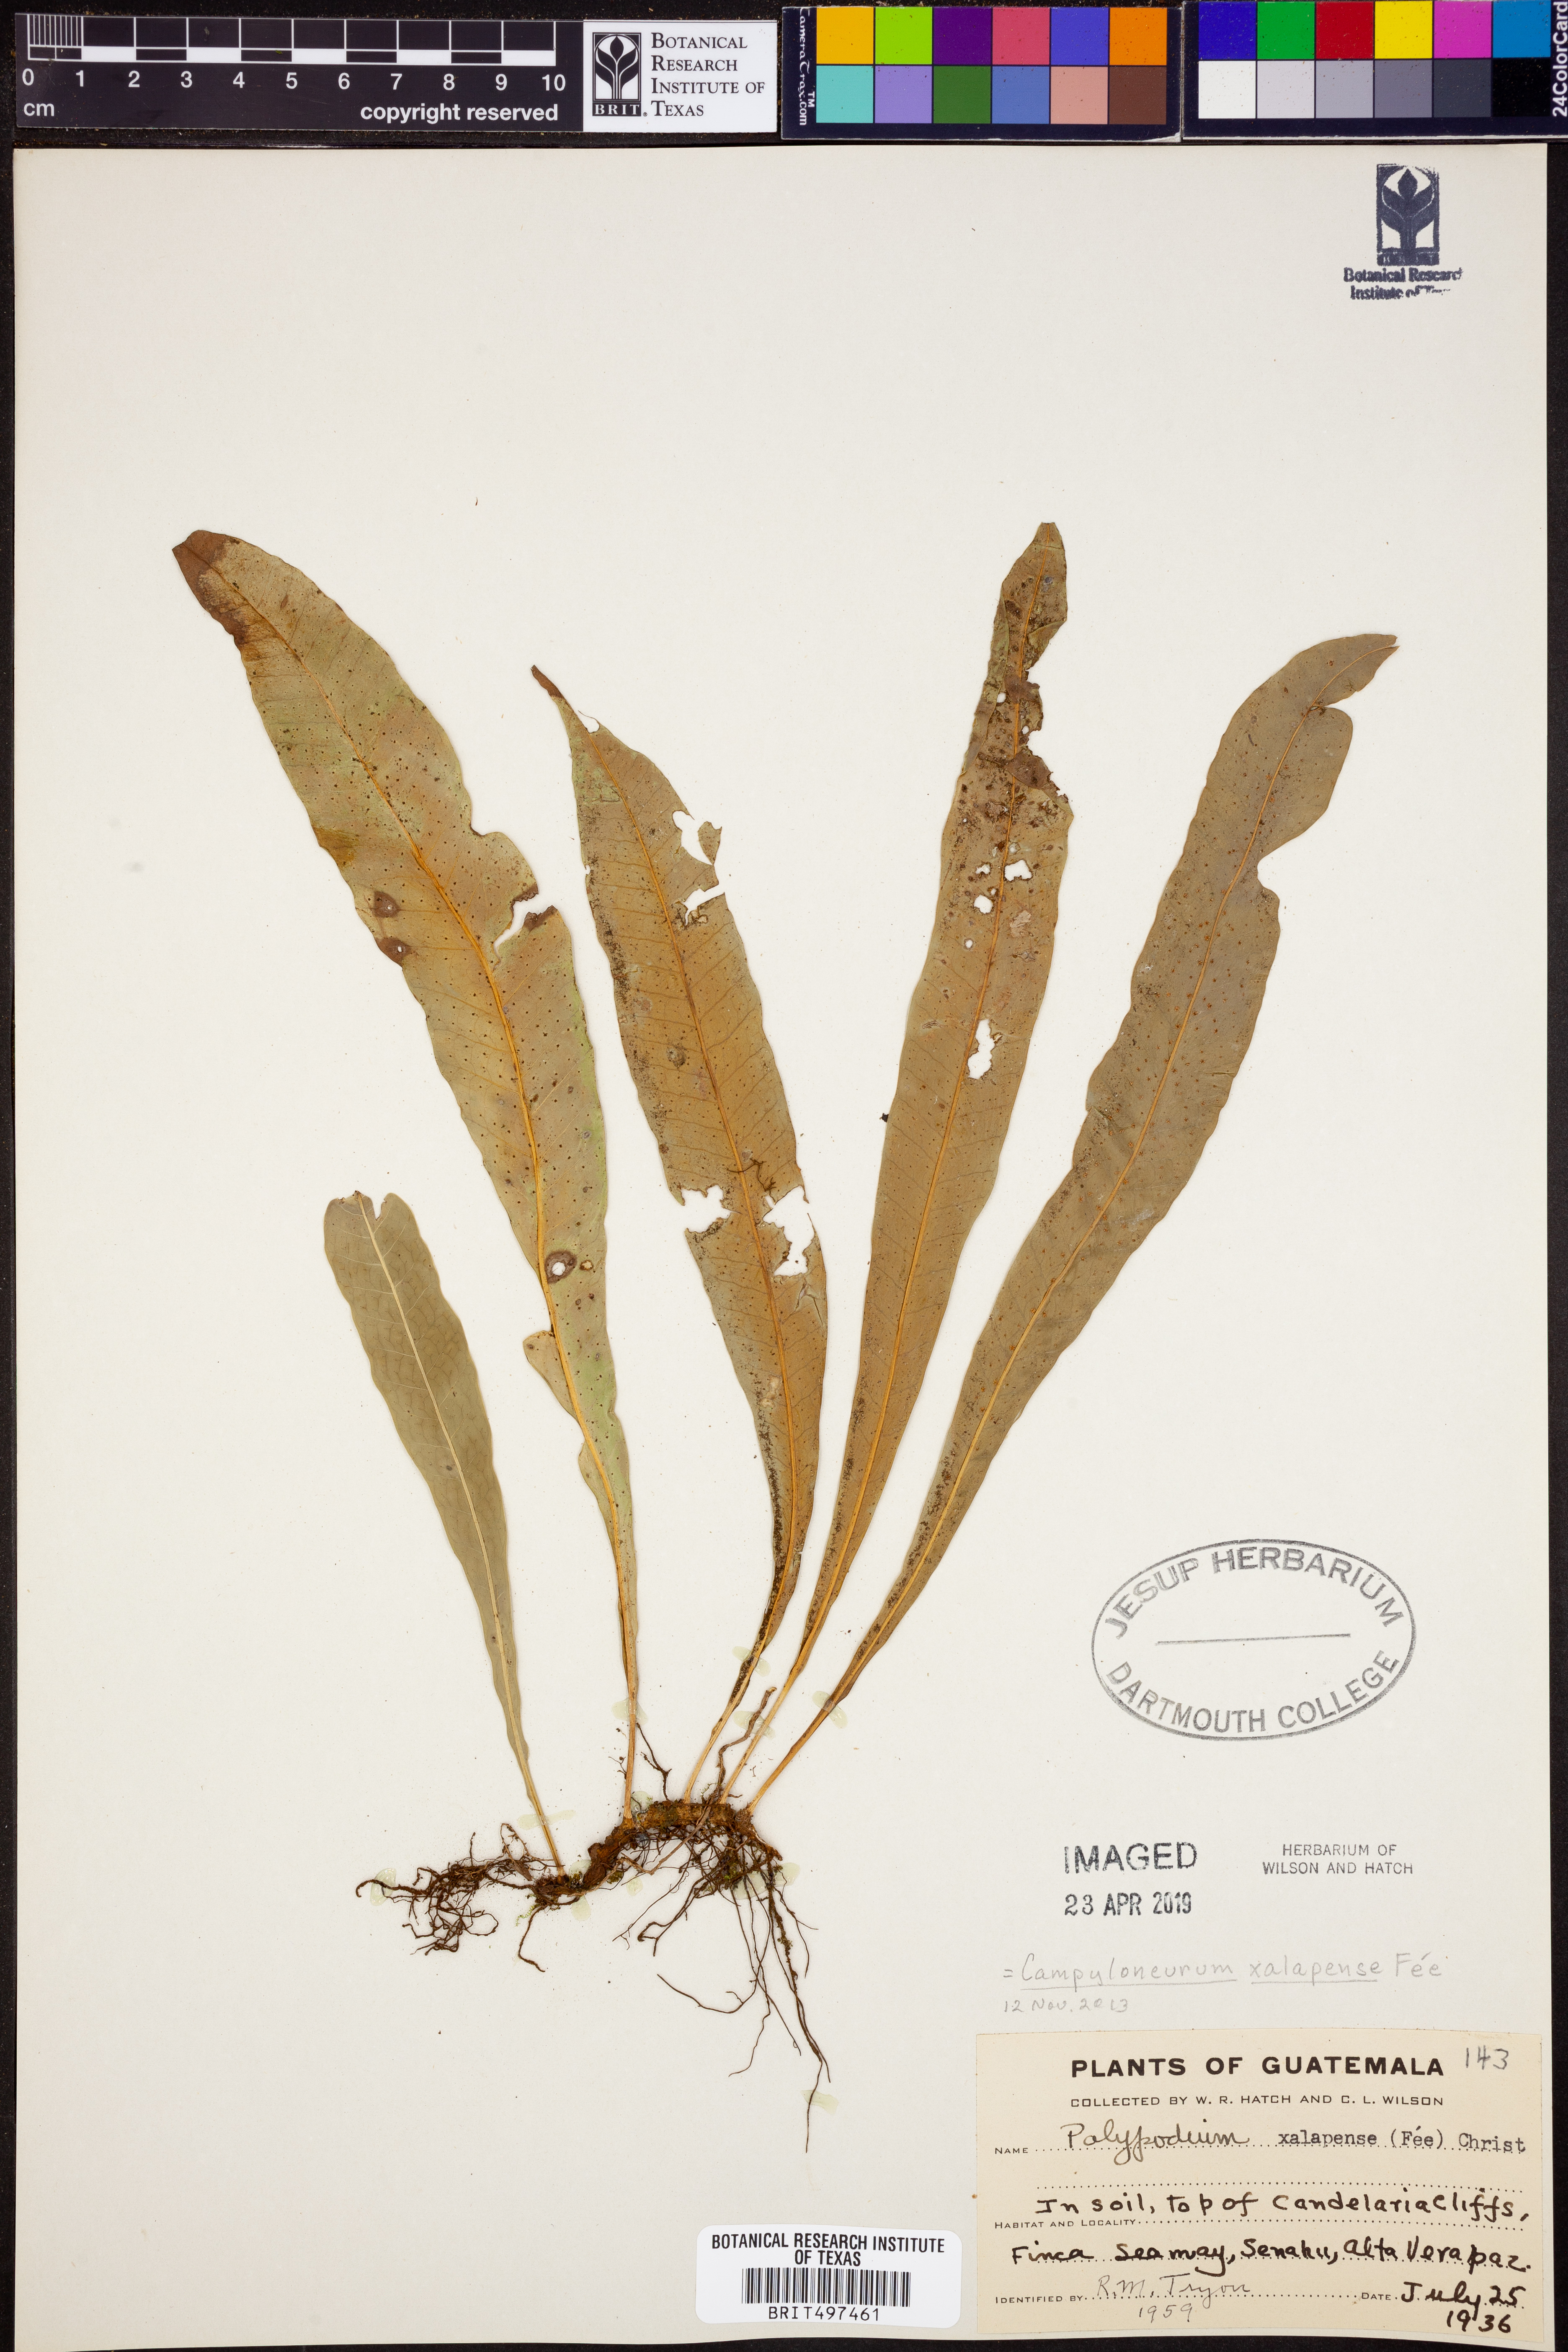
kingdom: Plantae
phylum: Tracheophyta
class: Polypodiopsida
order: Polypodiales
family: Polypodiaceae
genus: Campyloneurum
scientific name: Campyloneurum xalapense
